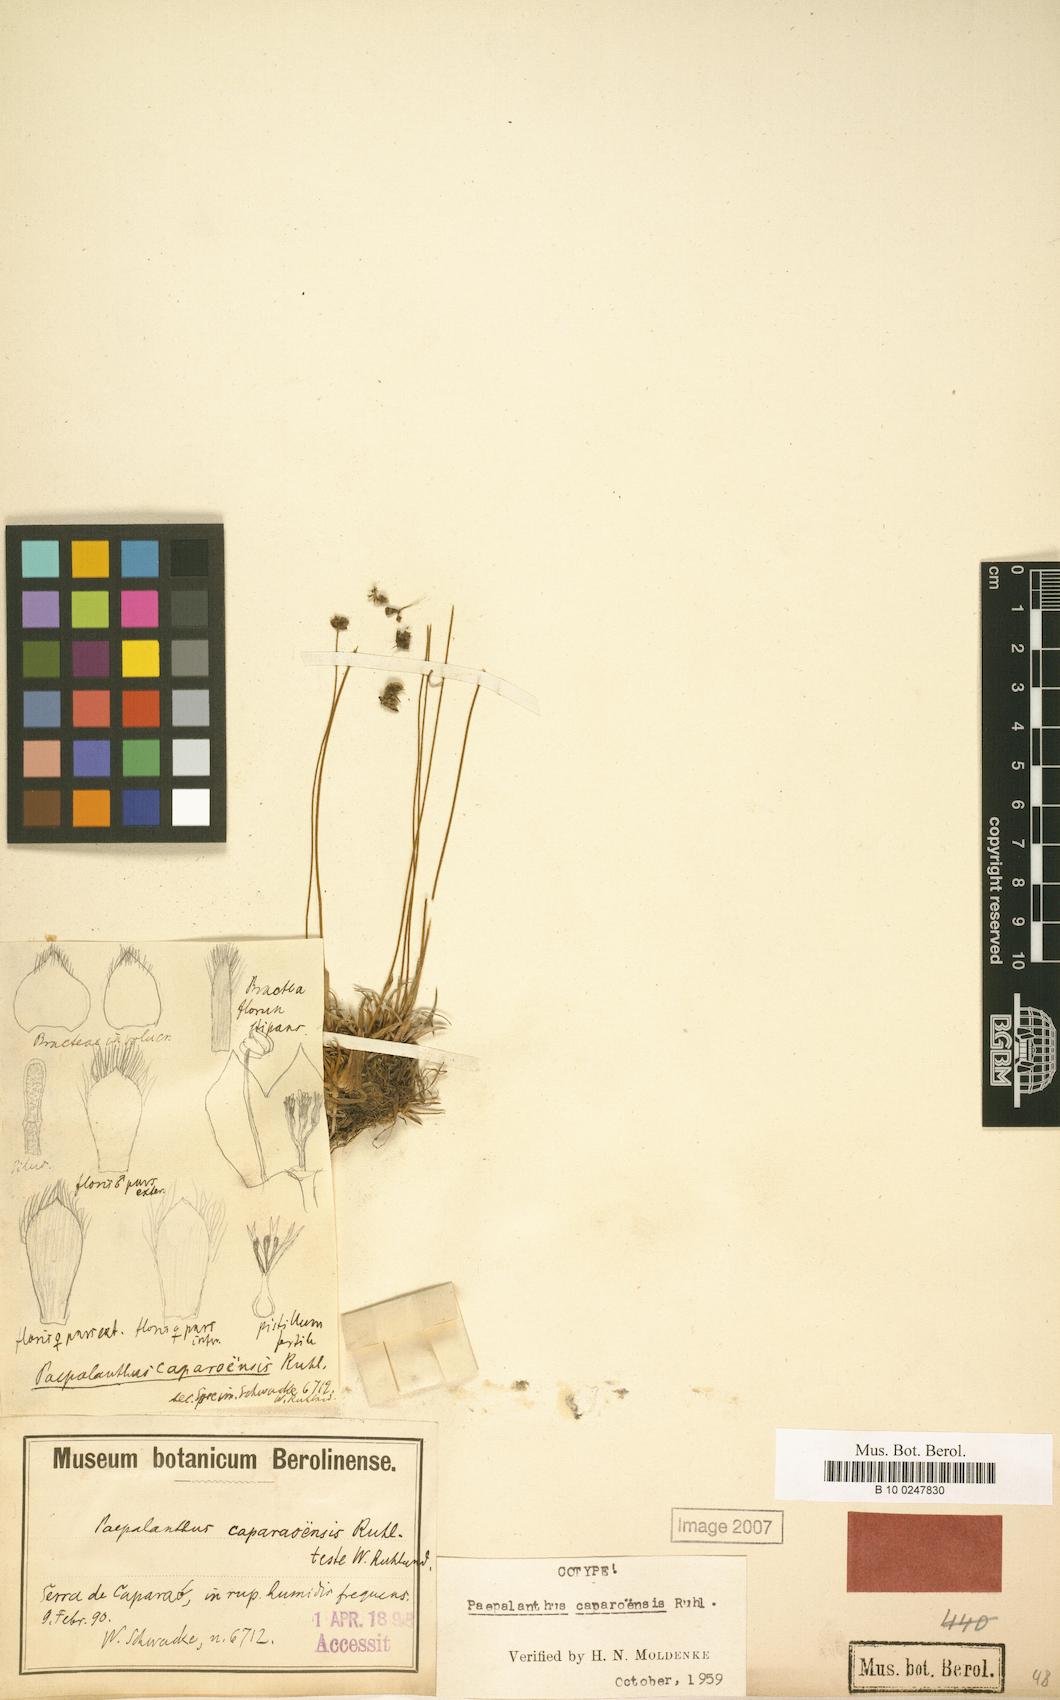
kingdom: Plantae
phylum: Tracheophyta
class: Liliopsida
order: Poales
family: Eriocaulaceae
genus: Paepalanthus
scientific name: Paepalanthus caparoensis
